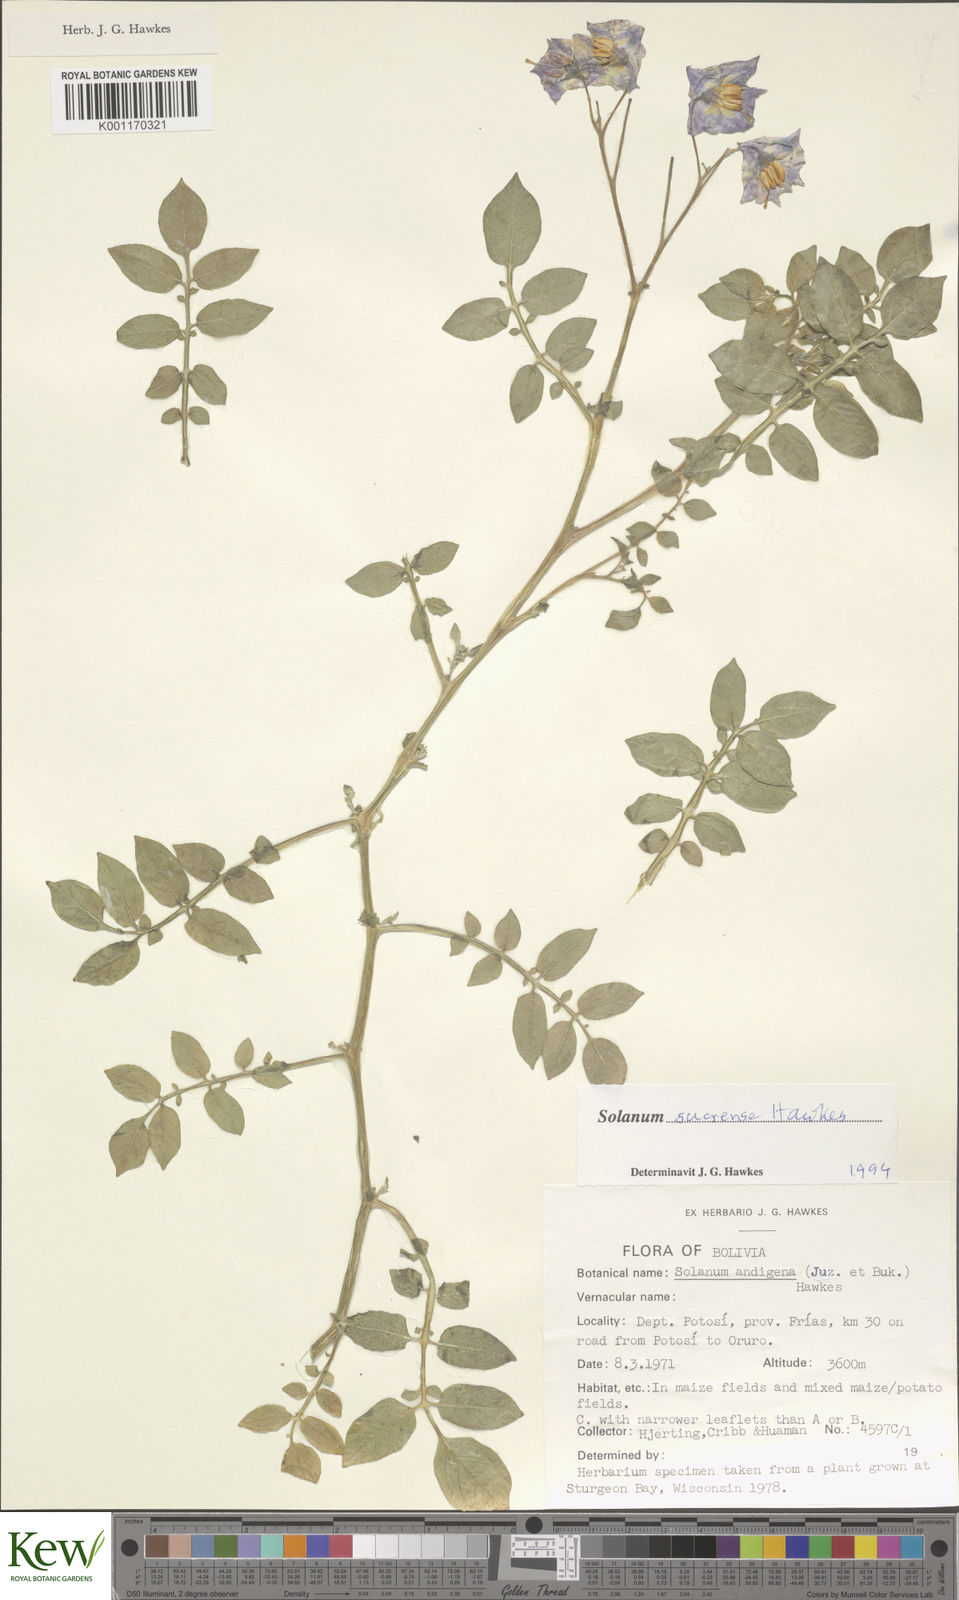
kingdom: Plantae
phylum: Tracheophyta
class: Magnoliopsida
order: Solanales
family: Solanaceae
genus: Solanum
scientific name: Solanum brevicaule
